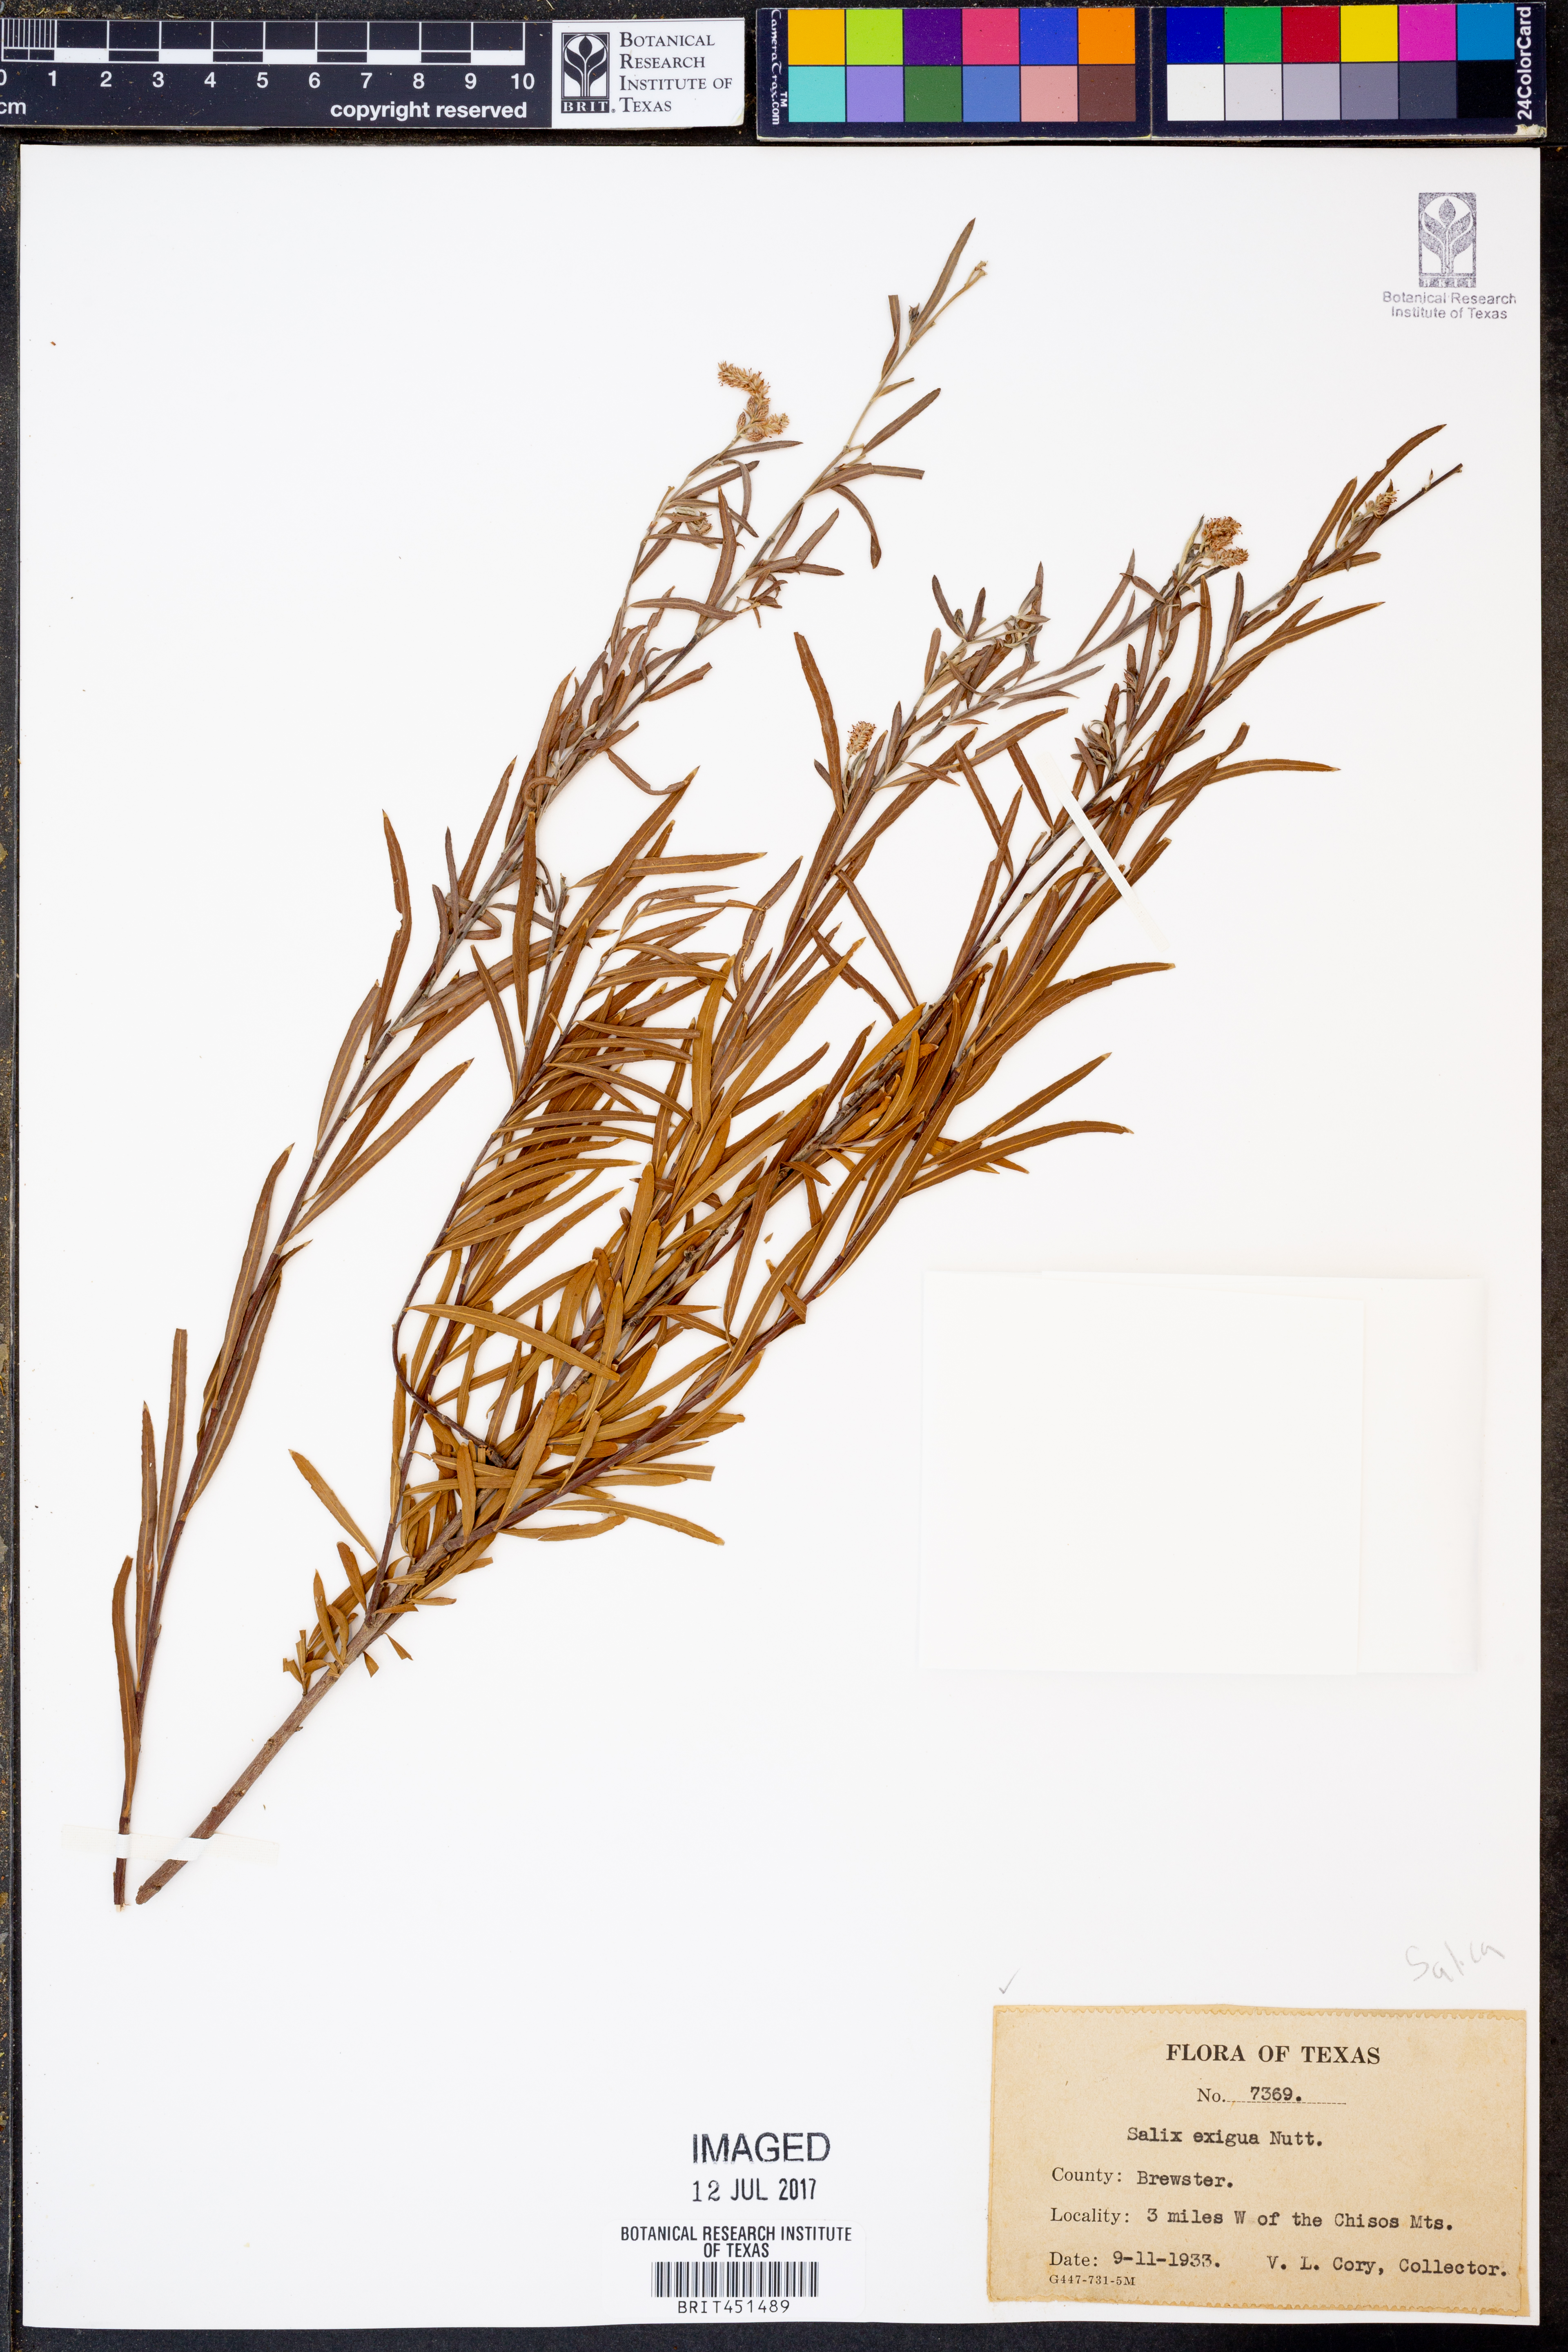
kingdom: Plantae
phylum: Tracheophyta
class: Magnoliopsida
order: Malpighiales
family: Salicaceae
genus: Salix
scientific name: Salix exigua
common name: Coyote willow
